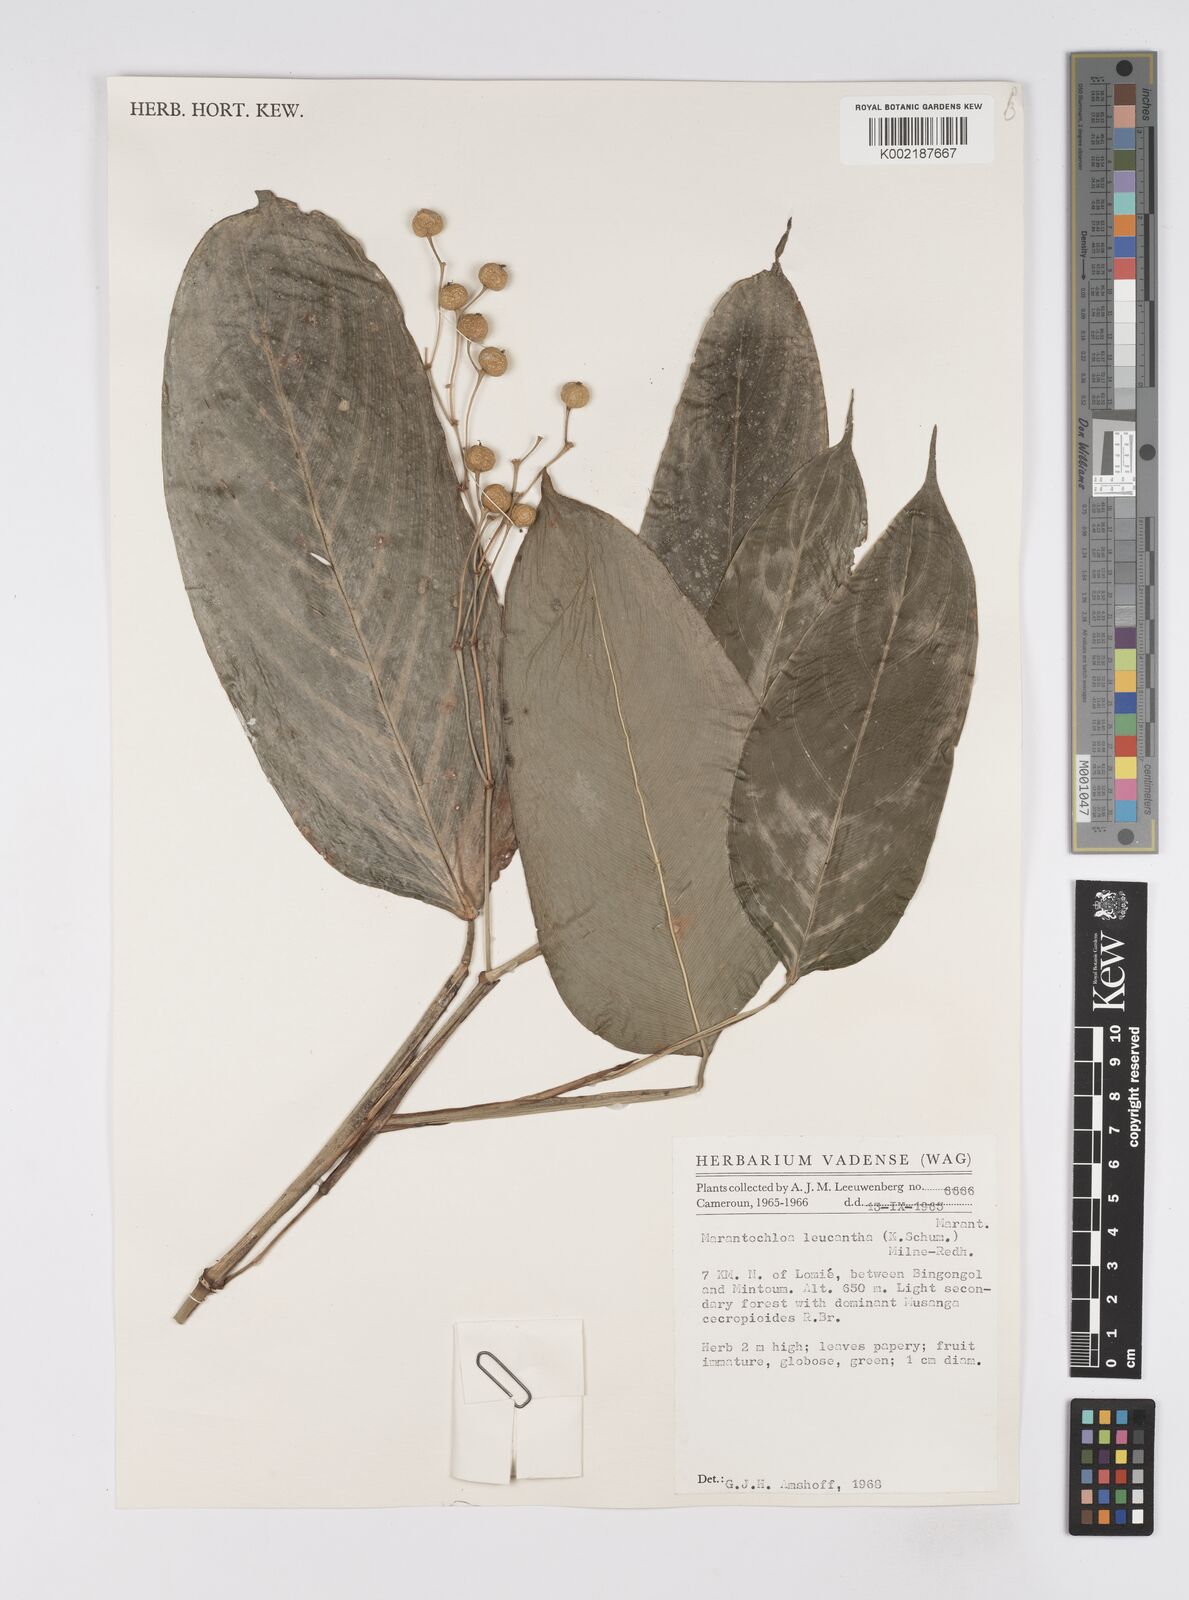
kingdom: Plantae
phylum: Tracheophyta
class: Liliopsida
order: Zingiberales
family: Marantaceae
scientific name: Marantaceae
